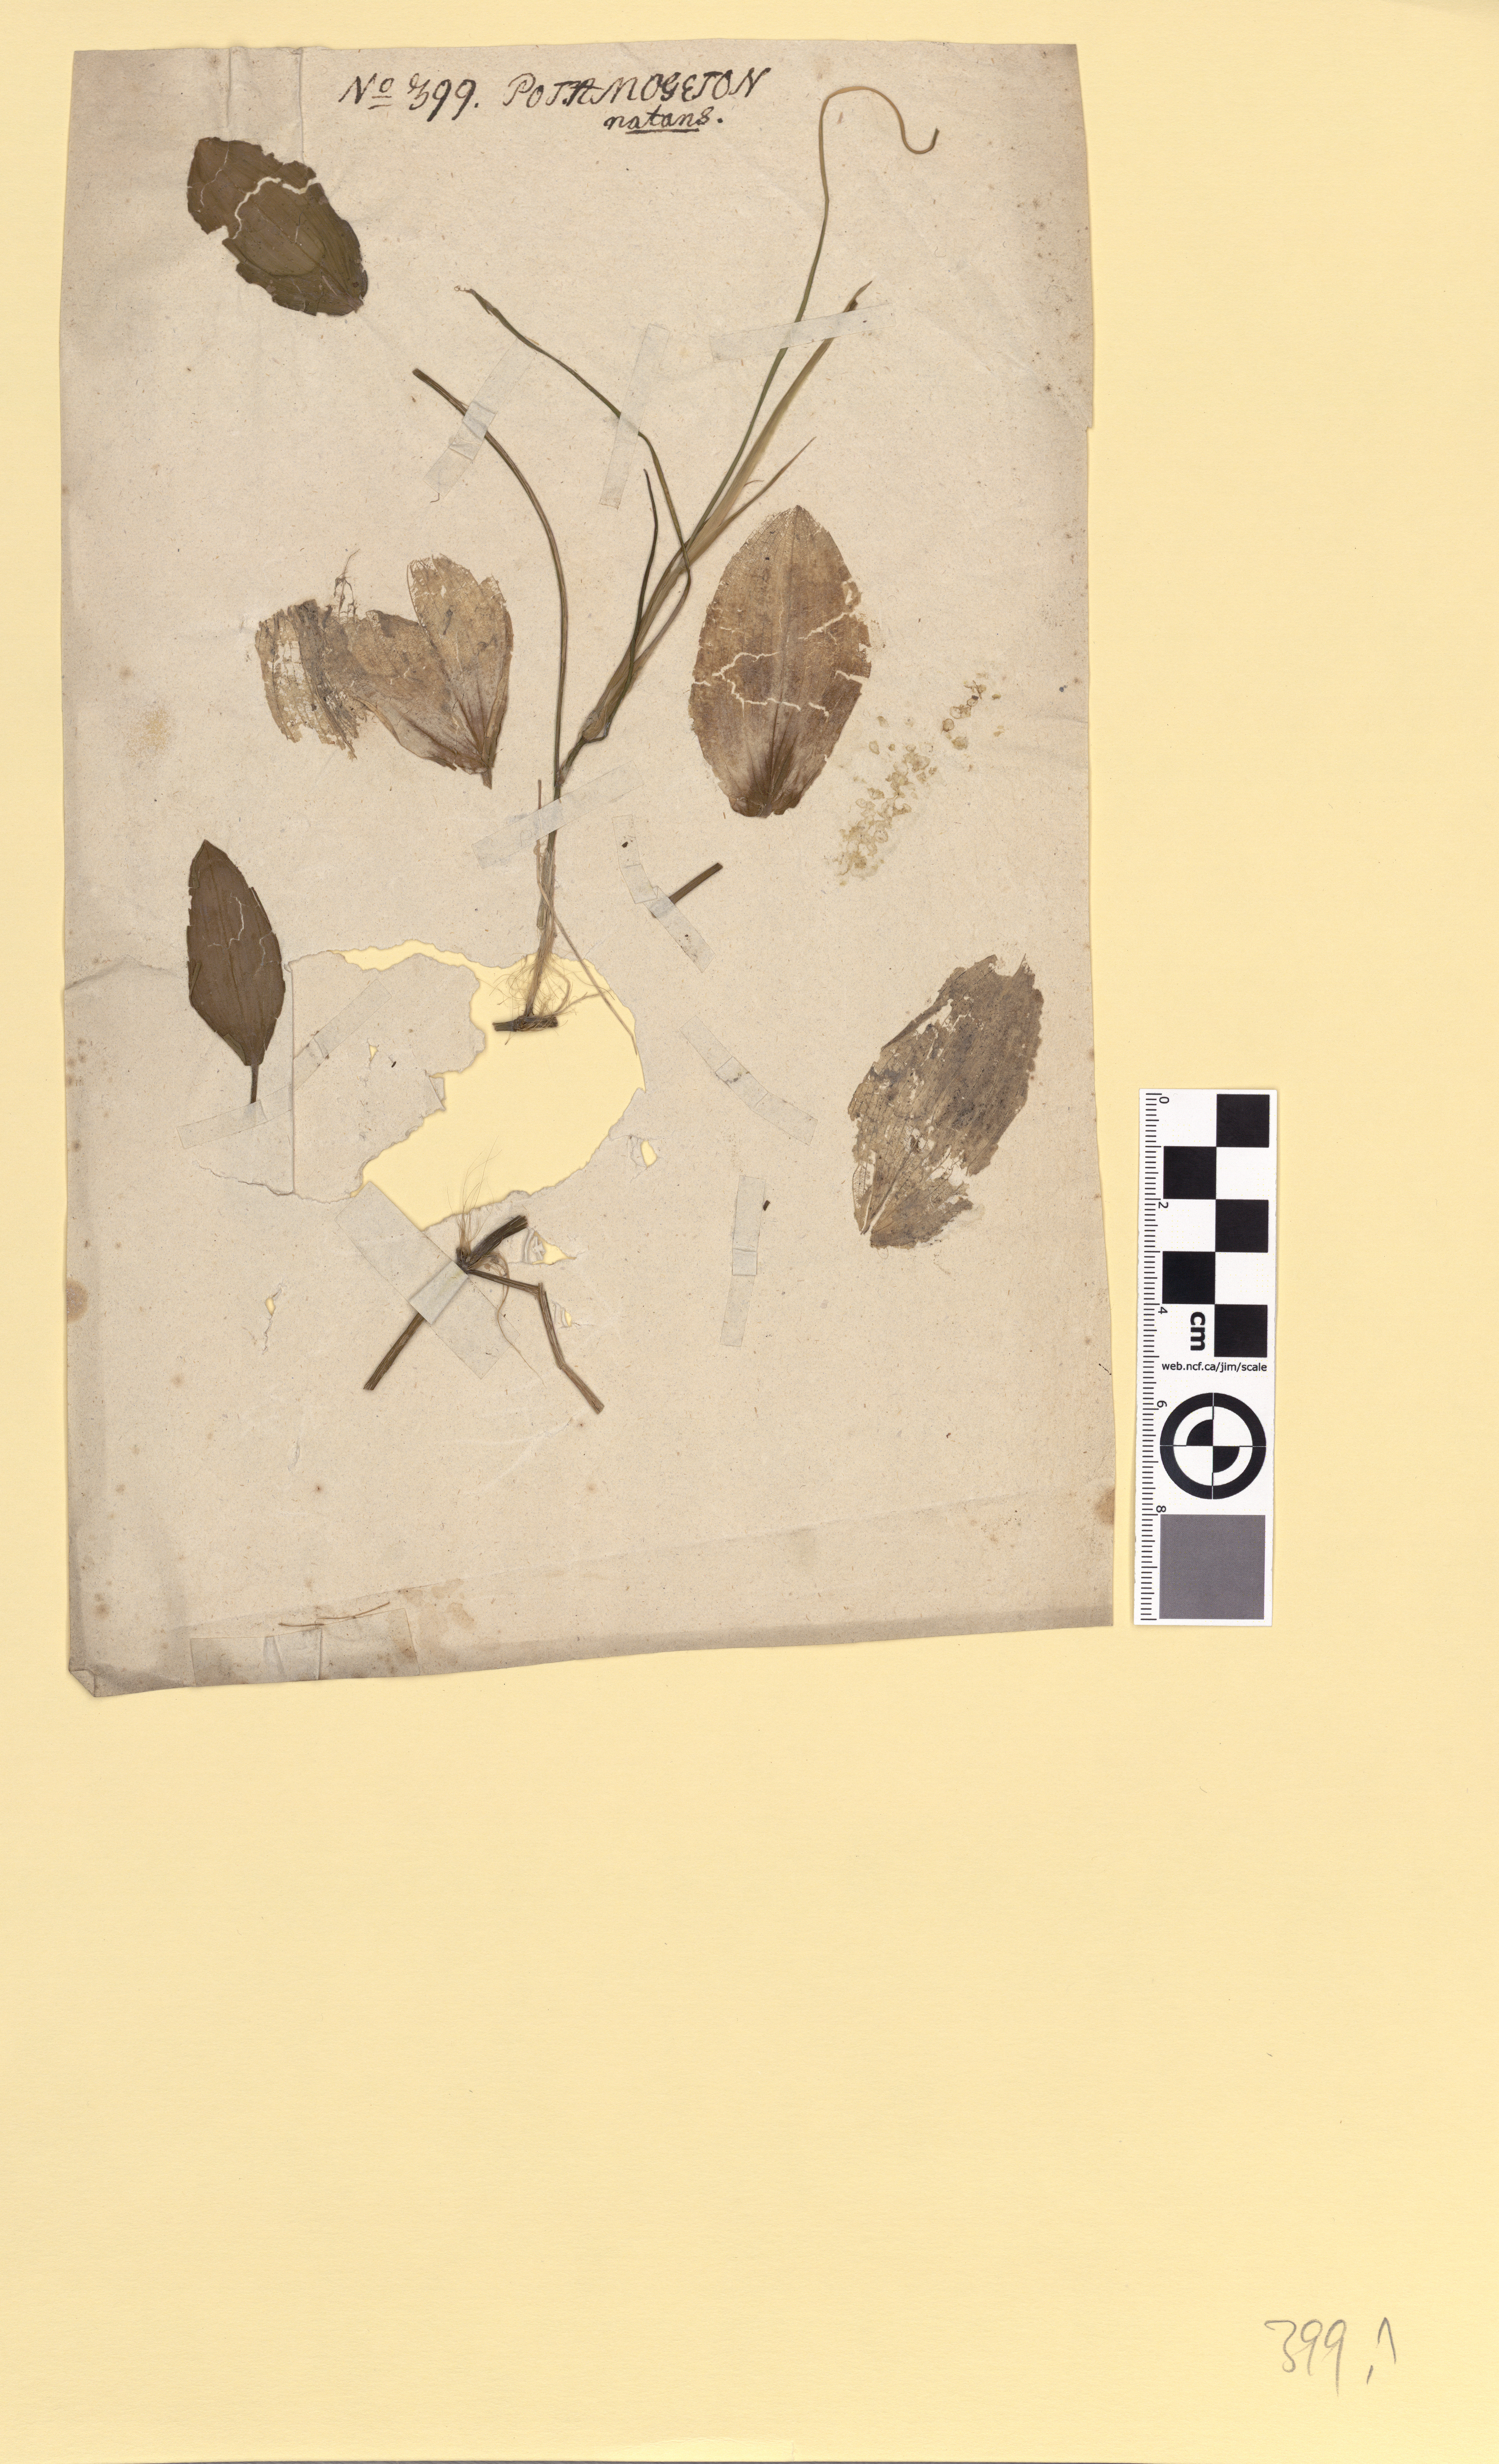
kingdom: Plantae
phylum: Tracheophyta
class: Liliopsida
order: Alismatales
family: Potamogetonaceae
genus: Potamogeton
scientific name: Potamogeton natans
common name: Broad-leaved pondweed
